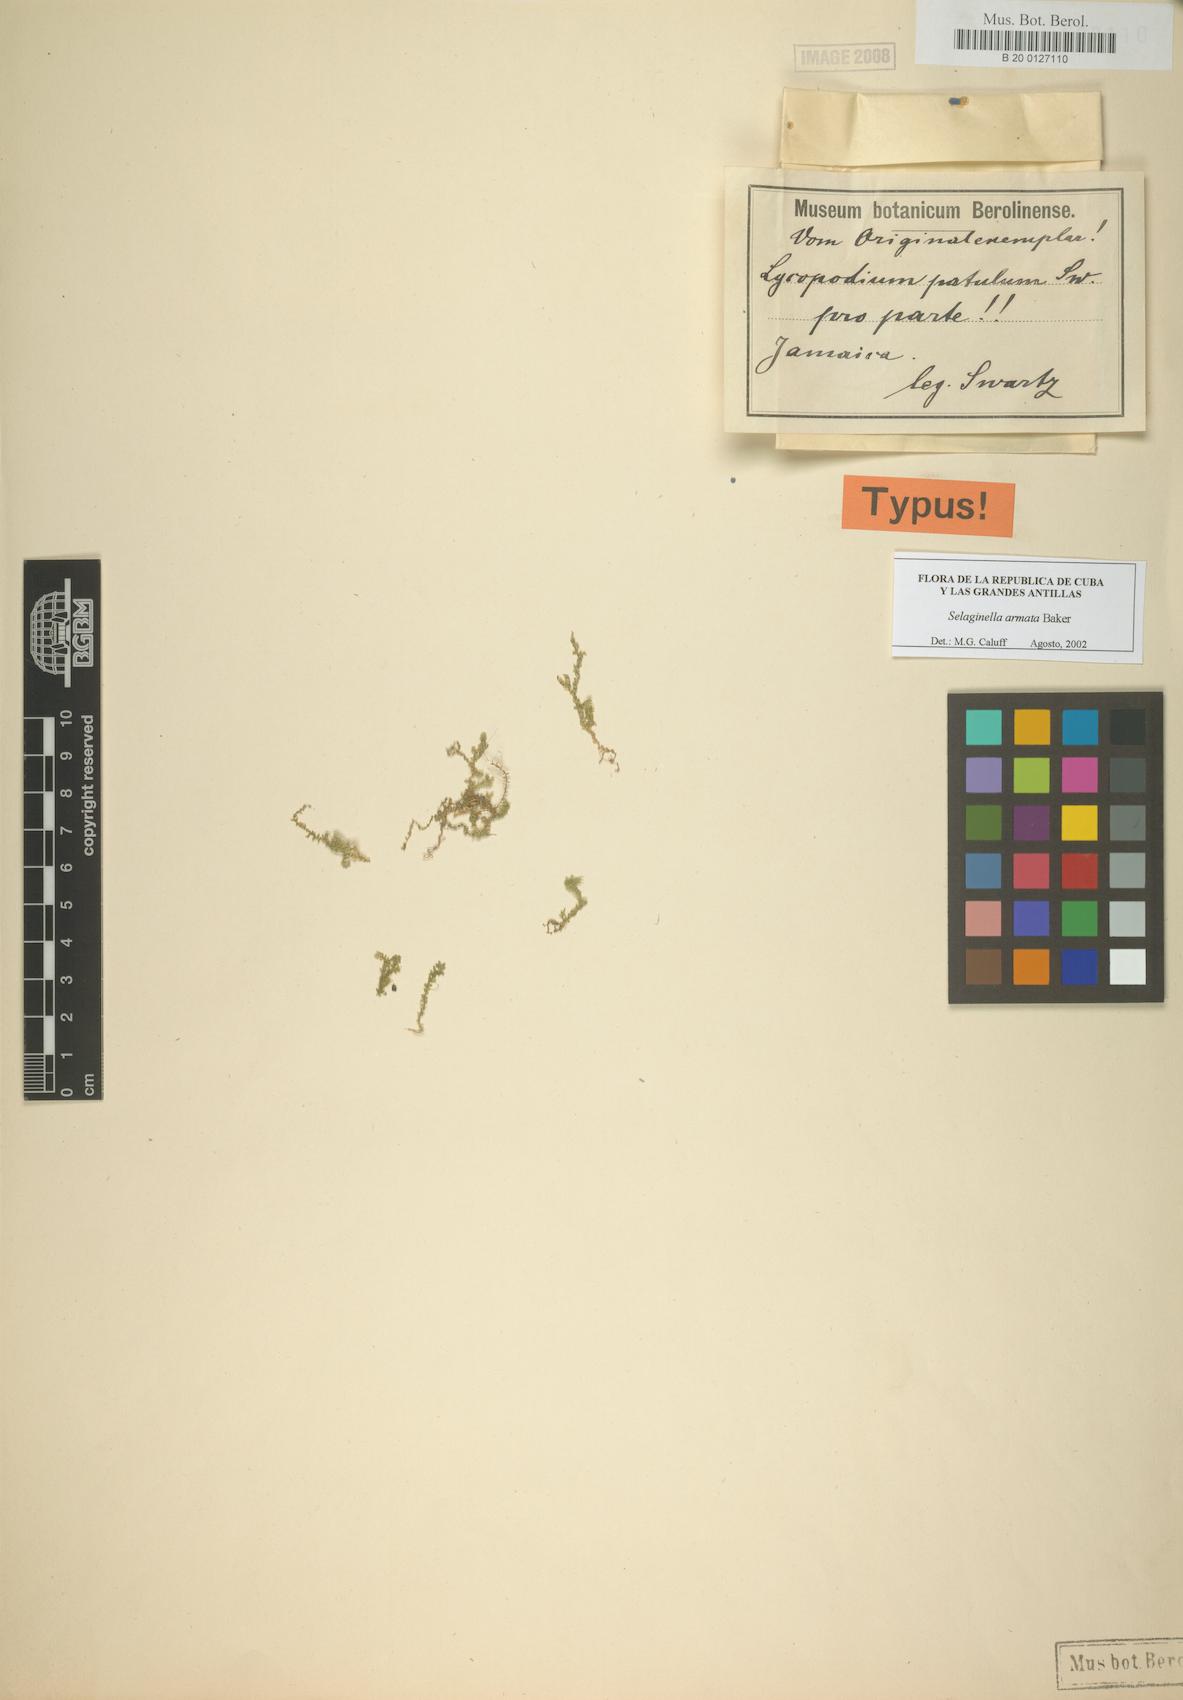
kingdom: Plantae
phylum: Tracheophyta
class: Lycopodiopsida
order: Selaginellales
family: Selaginellaceae
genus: Selaginella
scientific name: Selaginella tenella
